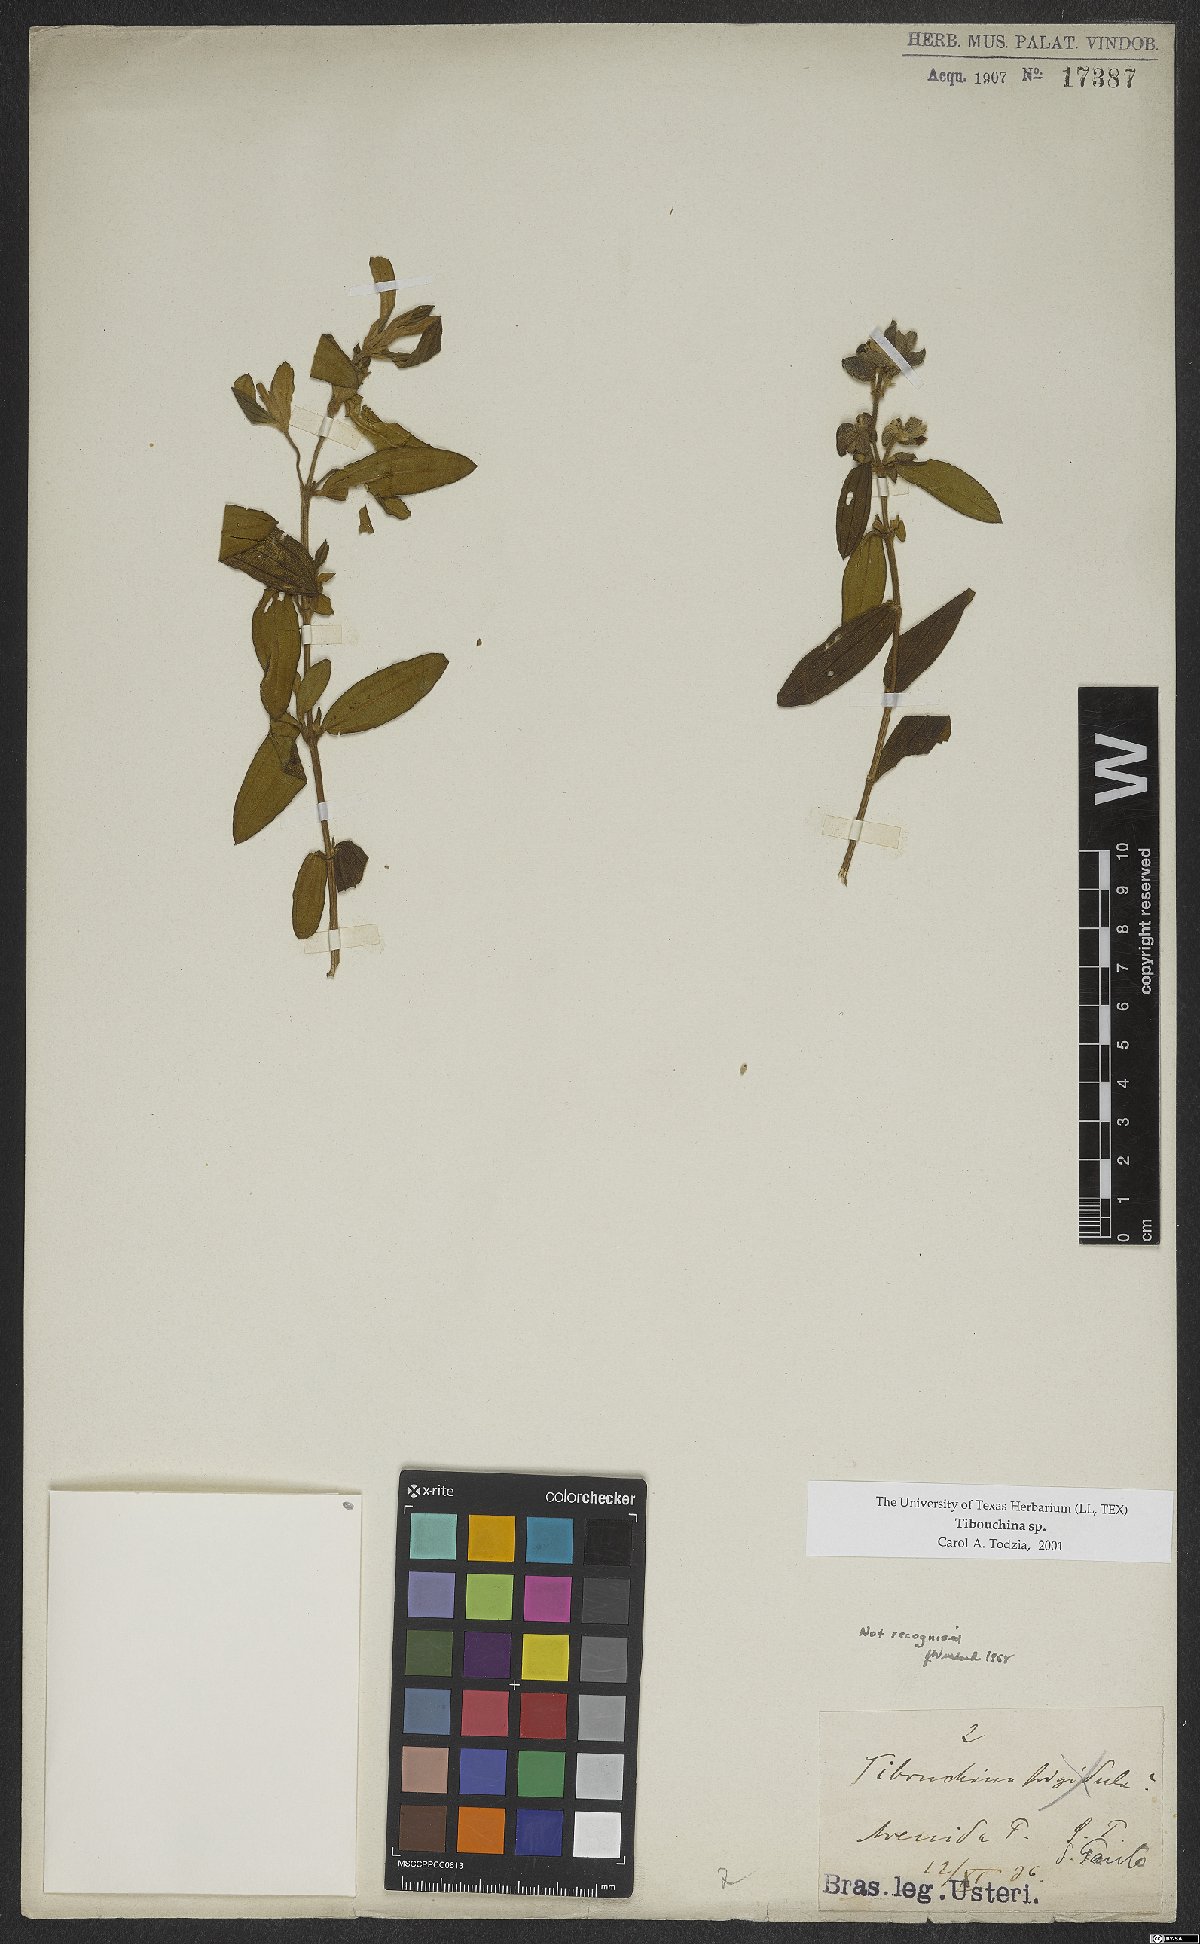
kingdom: Plantae
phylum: Tracheophyta
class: Magnoliopsida
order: Myrtales
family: Melastomataceae
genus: Tibouchina
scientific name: Tibouchina
